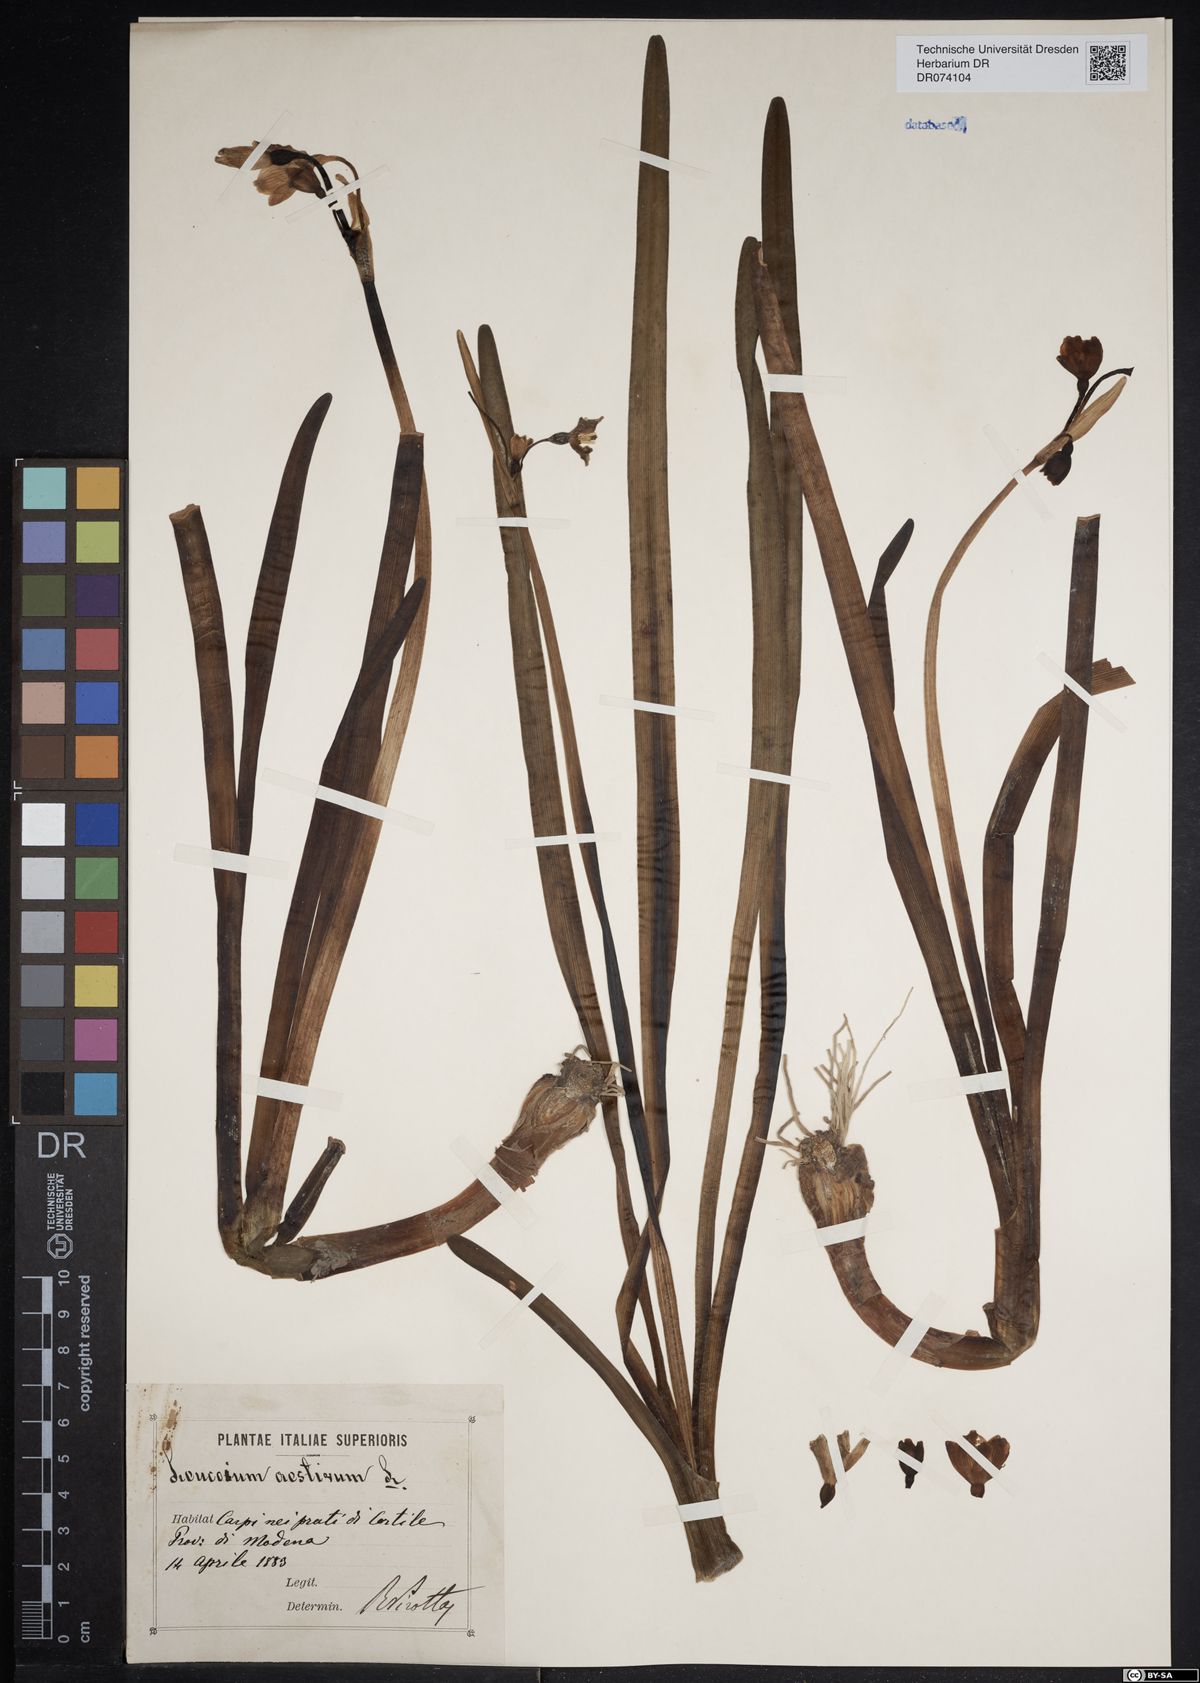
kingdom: Plantae
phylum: Tracheophyta
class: Liliopsida
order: Asparagales
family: Amaryllidaceae
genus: Leucojum
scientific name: Leucojum aestivum
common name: Summer snowflake
